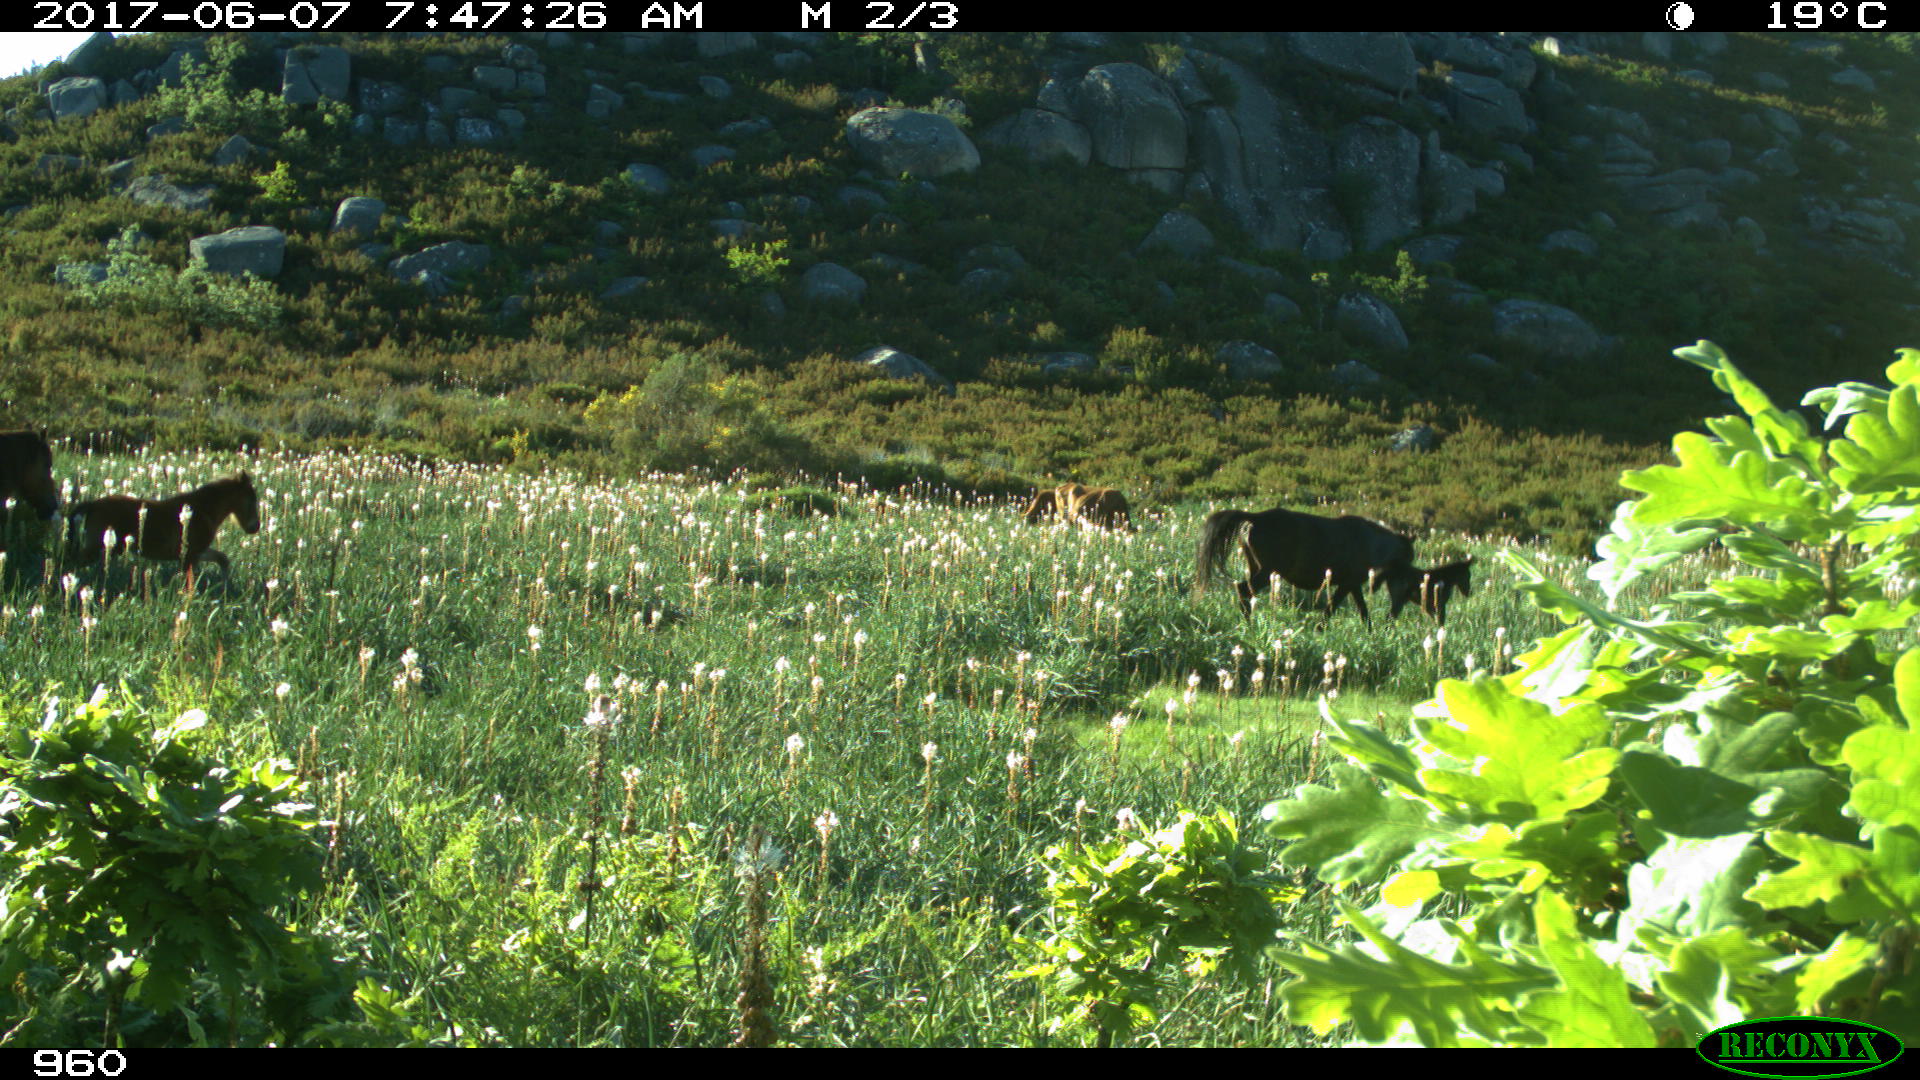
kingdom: Animalia
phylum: Chordata
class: Mammalia
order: Perissodactyla
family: Equidae
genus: Equus
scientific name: Equus caballus
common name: Horse
